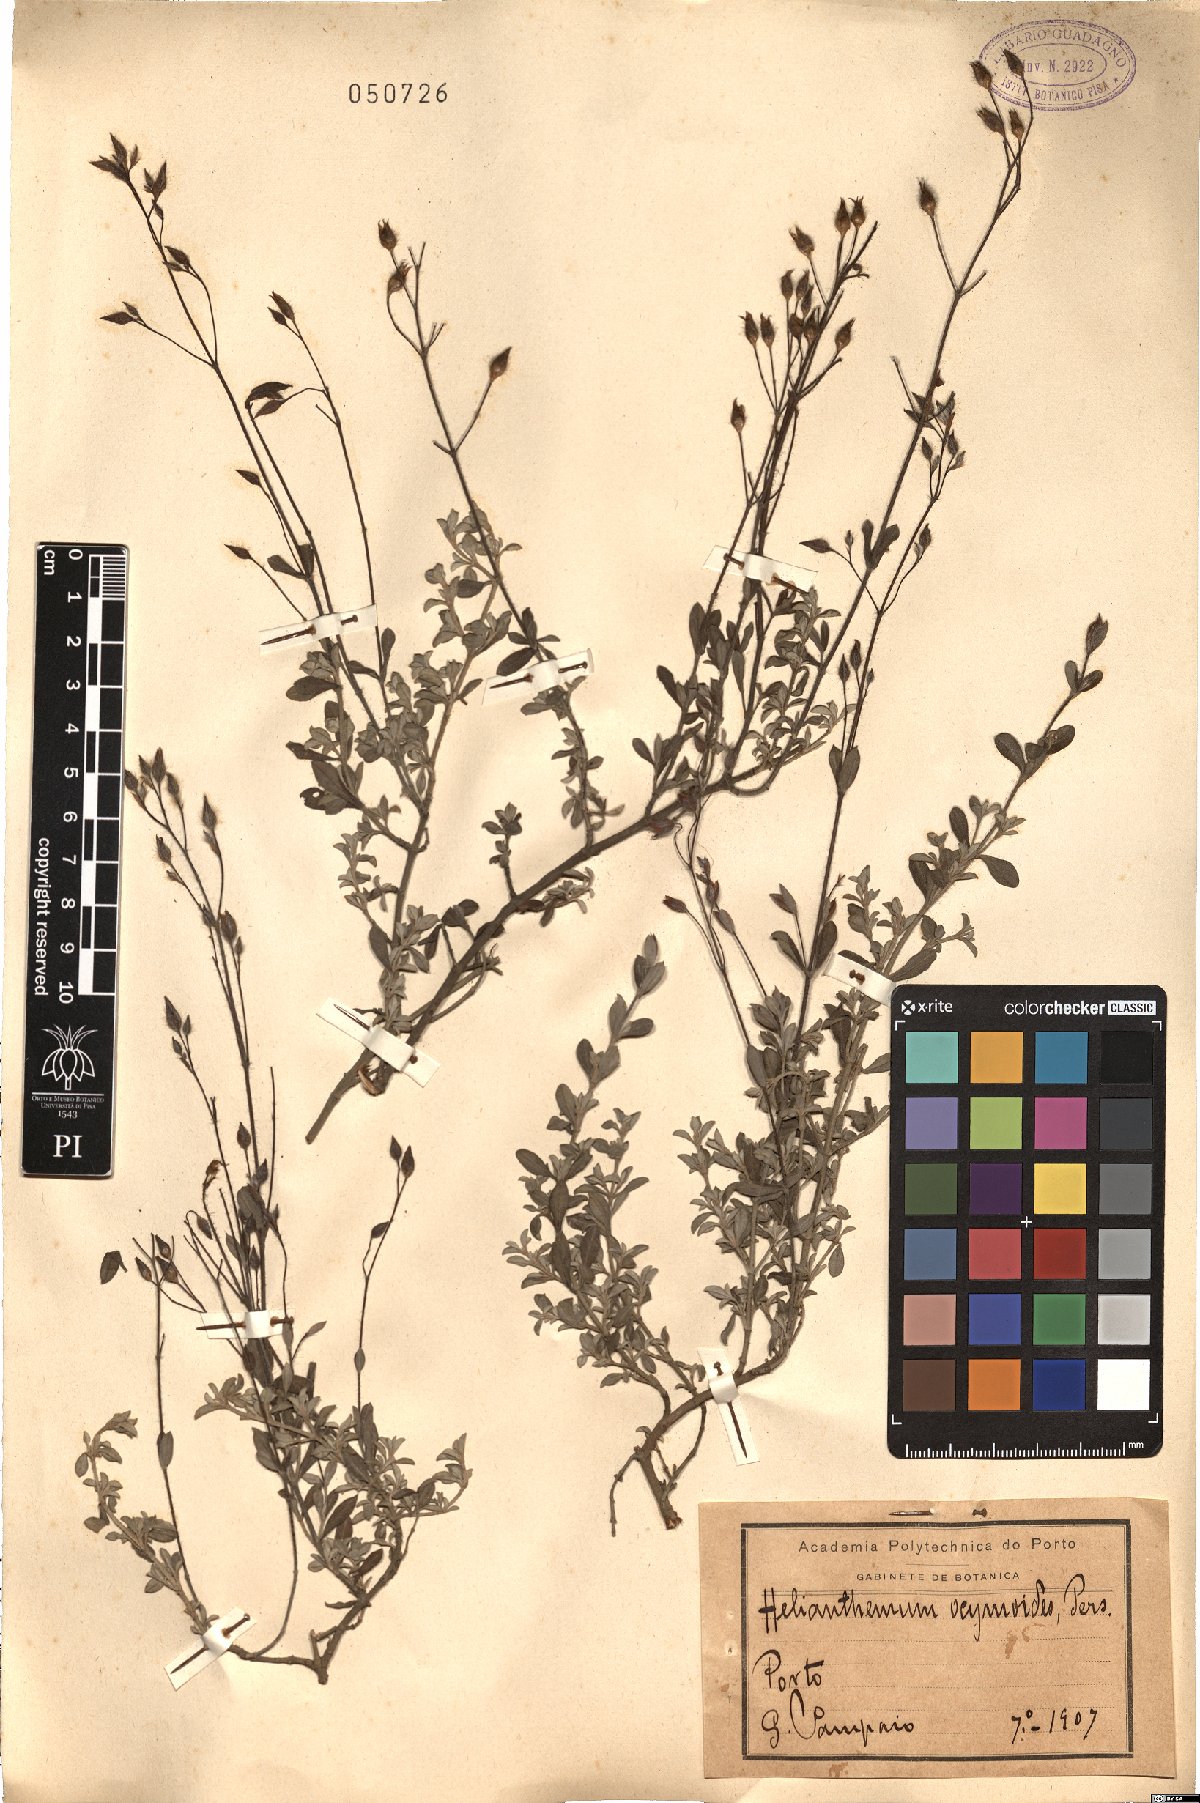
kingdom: Plantae
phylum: Tracheophyta
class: Magnoliopsida
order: Malvales
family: Cistaceae
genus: Halimium
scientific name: Halimium ocymoides
